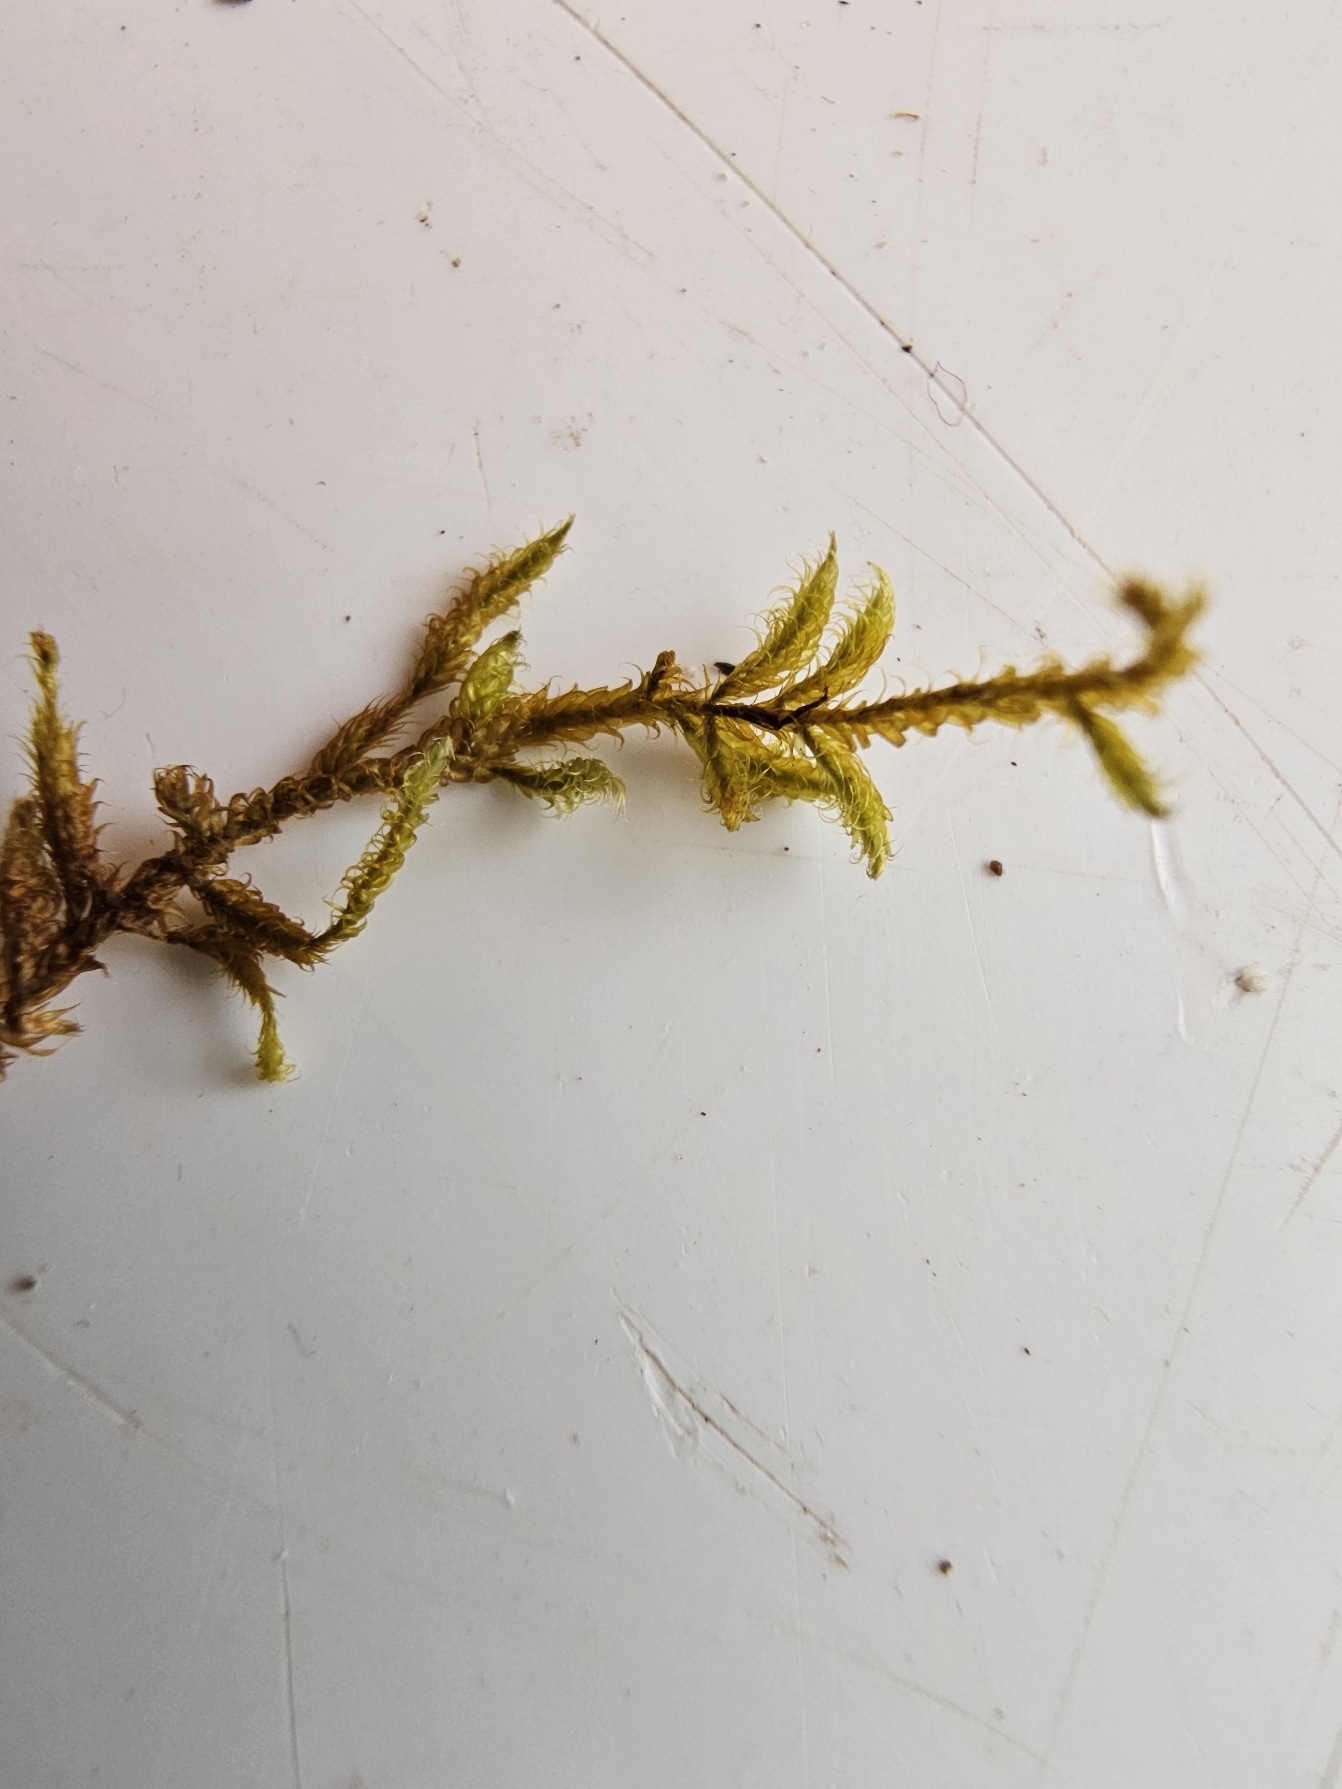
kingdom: Plantae
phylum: Bryophyta
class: Bryopsida
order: Hypnales
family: Hypnaceae
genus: Hypnum
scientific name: Hypnum cupressiforme
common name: Almindelig cypresmos
